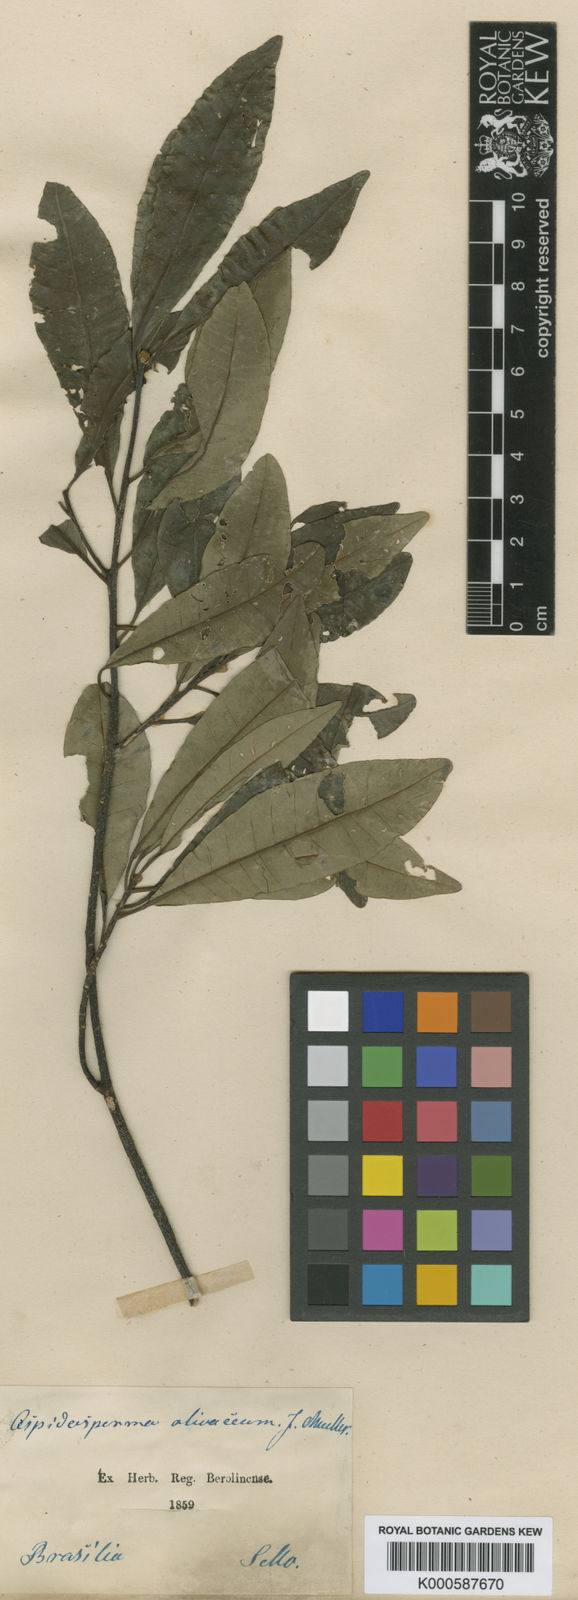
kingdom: Plantae
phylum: Tracheophyta
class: Magnoliopsida
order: Gentianales
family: Apocynaceae
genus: Aspidosperma
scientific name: Aspidosperma
